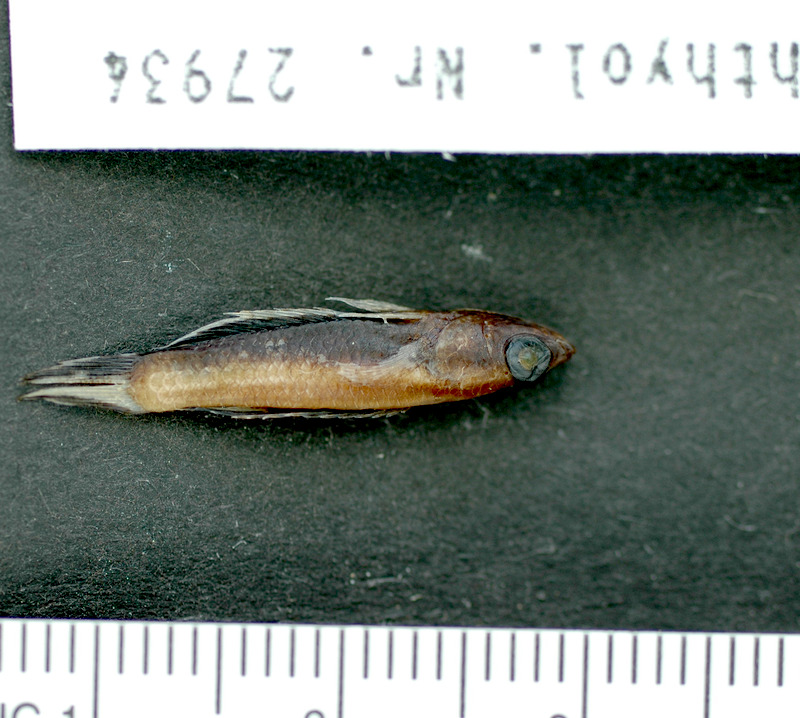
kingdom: Animalia
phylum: Chordata
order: Perciformes
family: Osphronemidae
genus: Parosphromenus
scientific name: Parosphromenus ornaticauda
